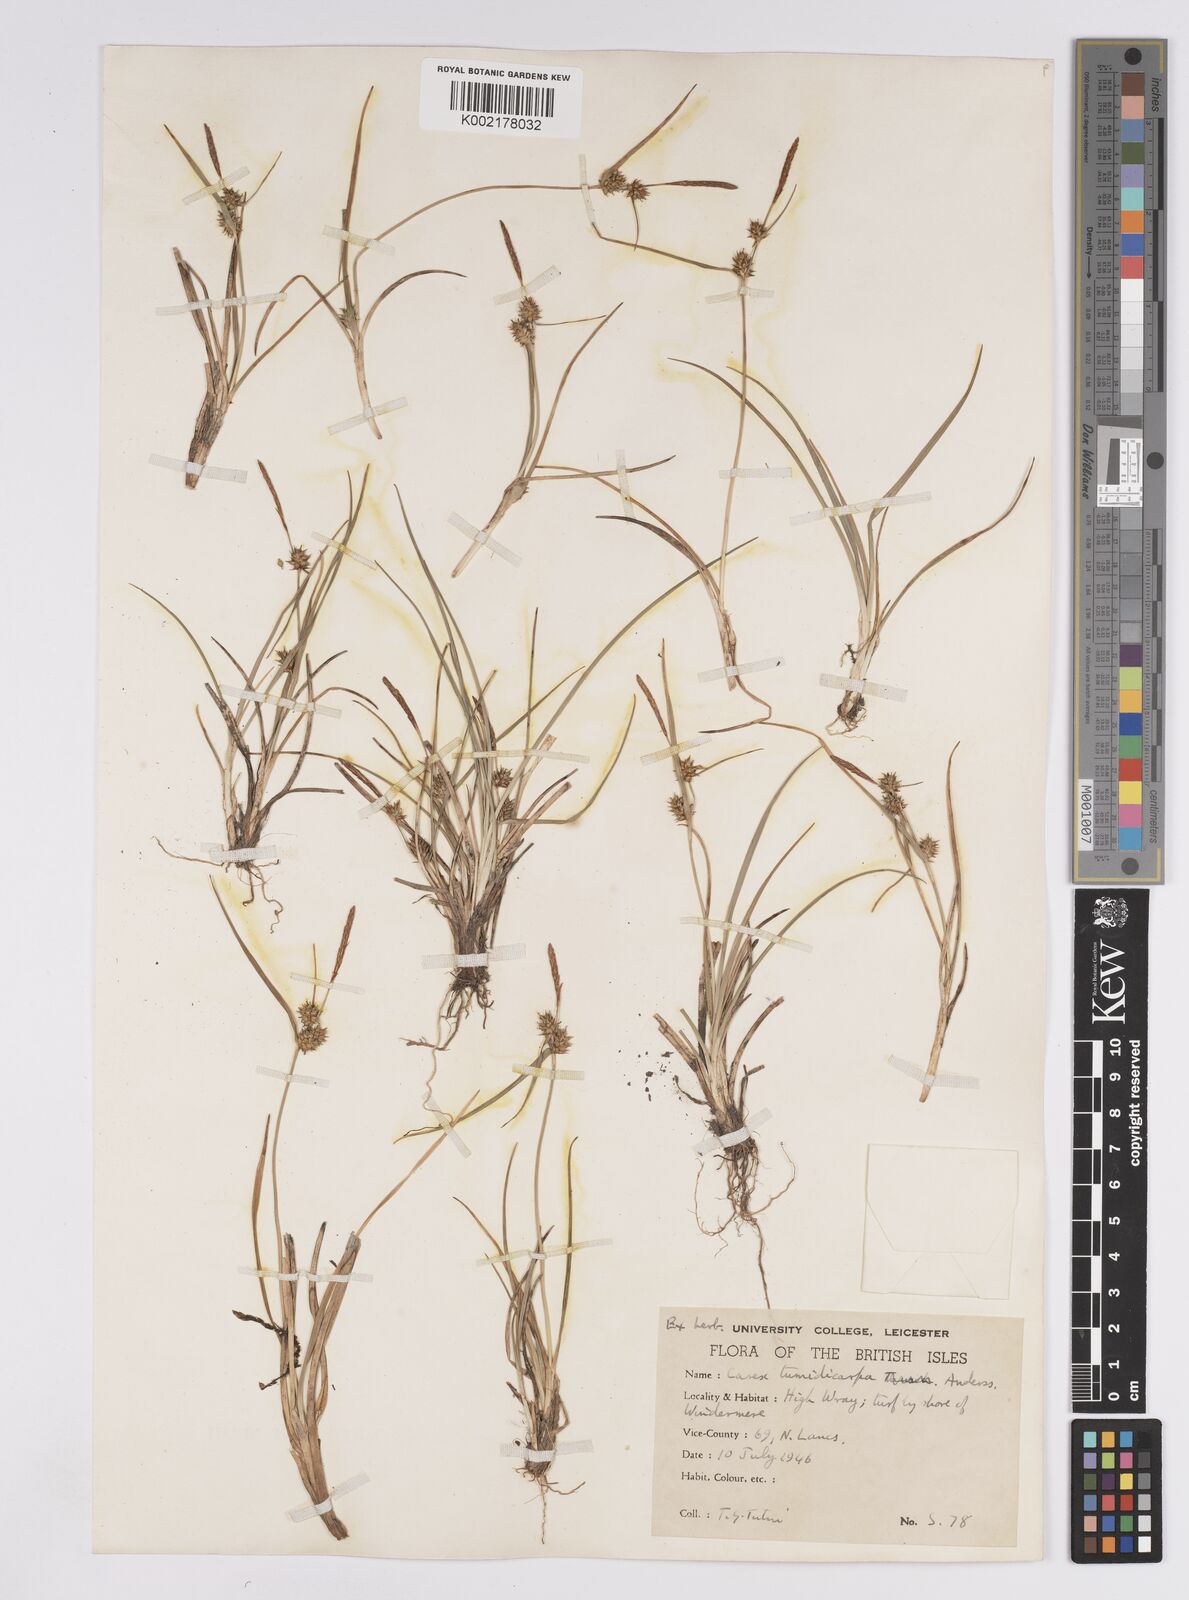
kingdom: Plantae
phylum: Tracheophyta
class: Liliopsida
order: Poales
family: Cyperaceae
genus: Carex
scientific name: Carex demissa
